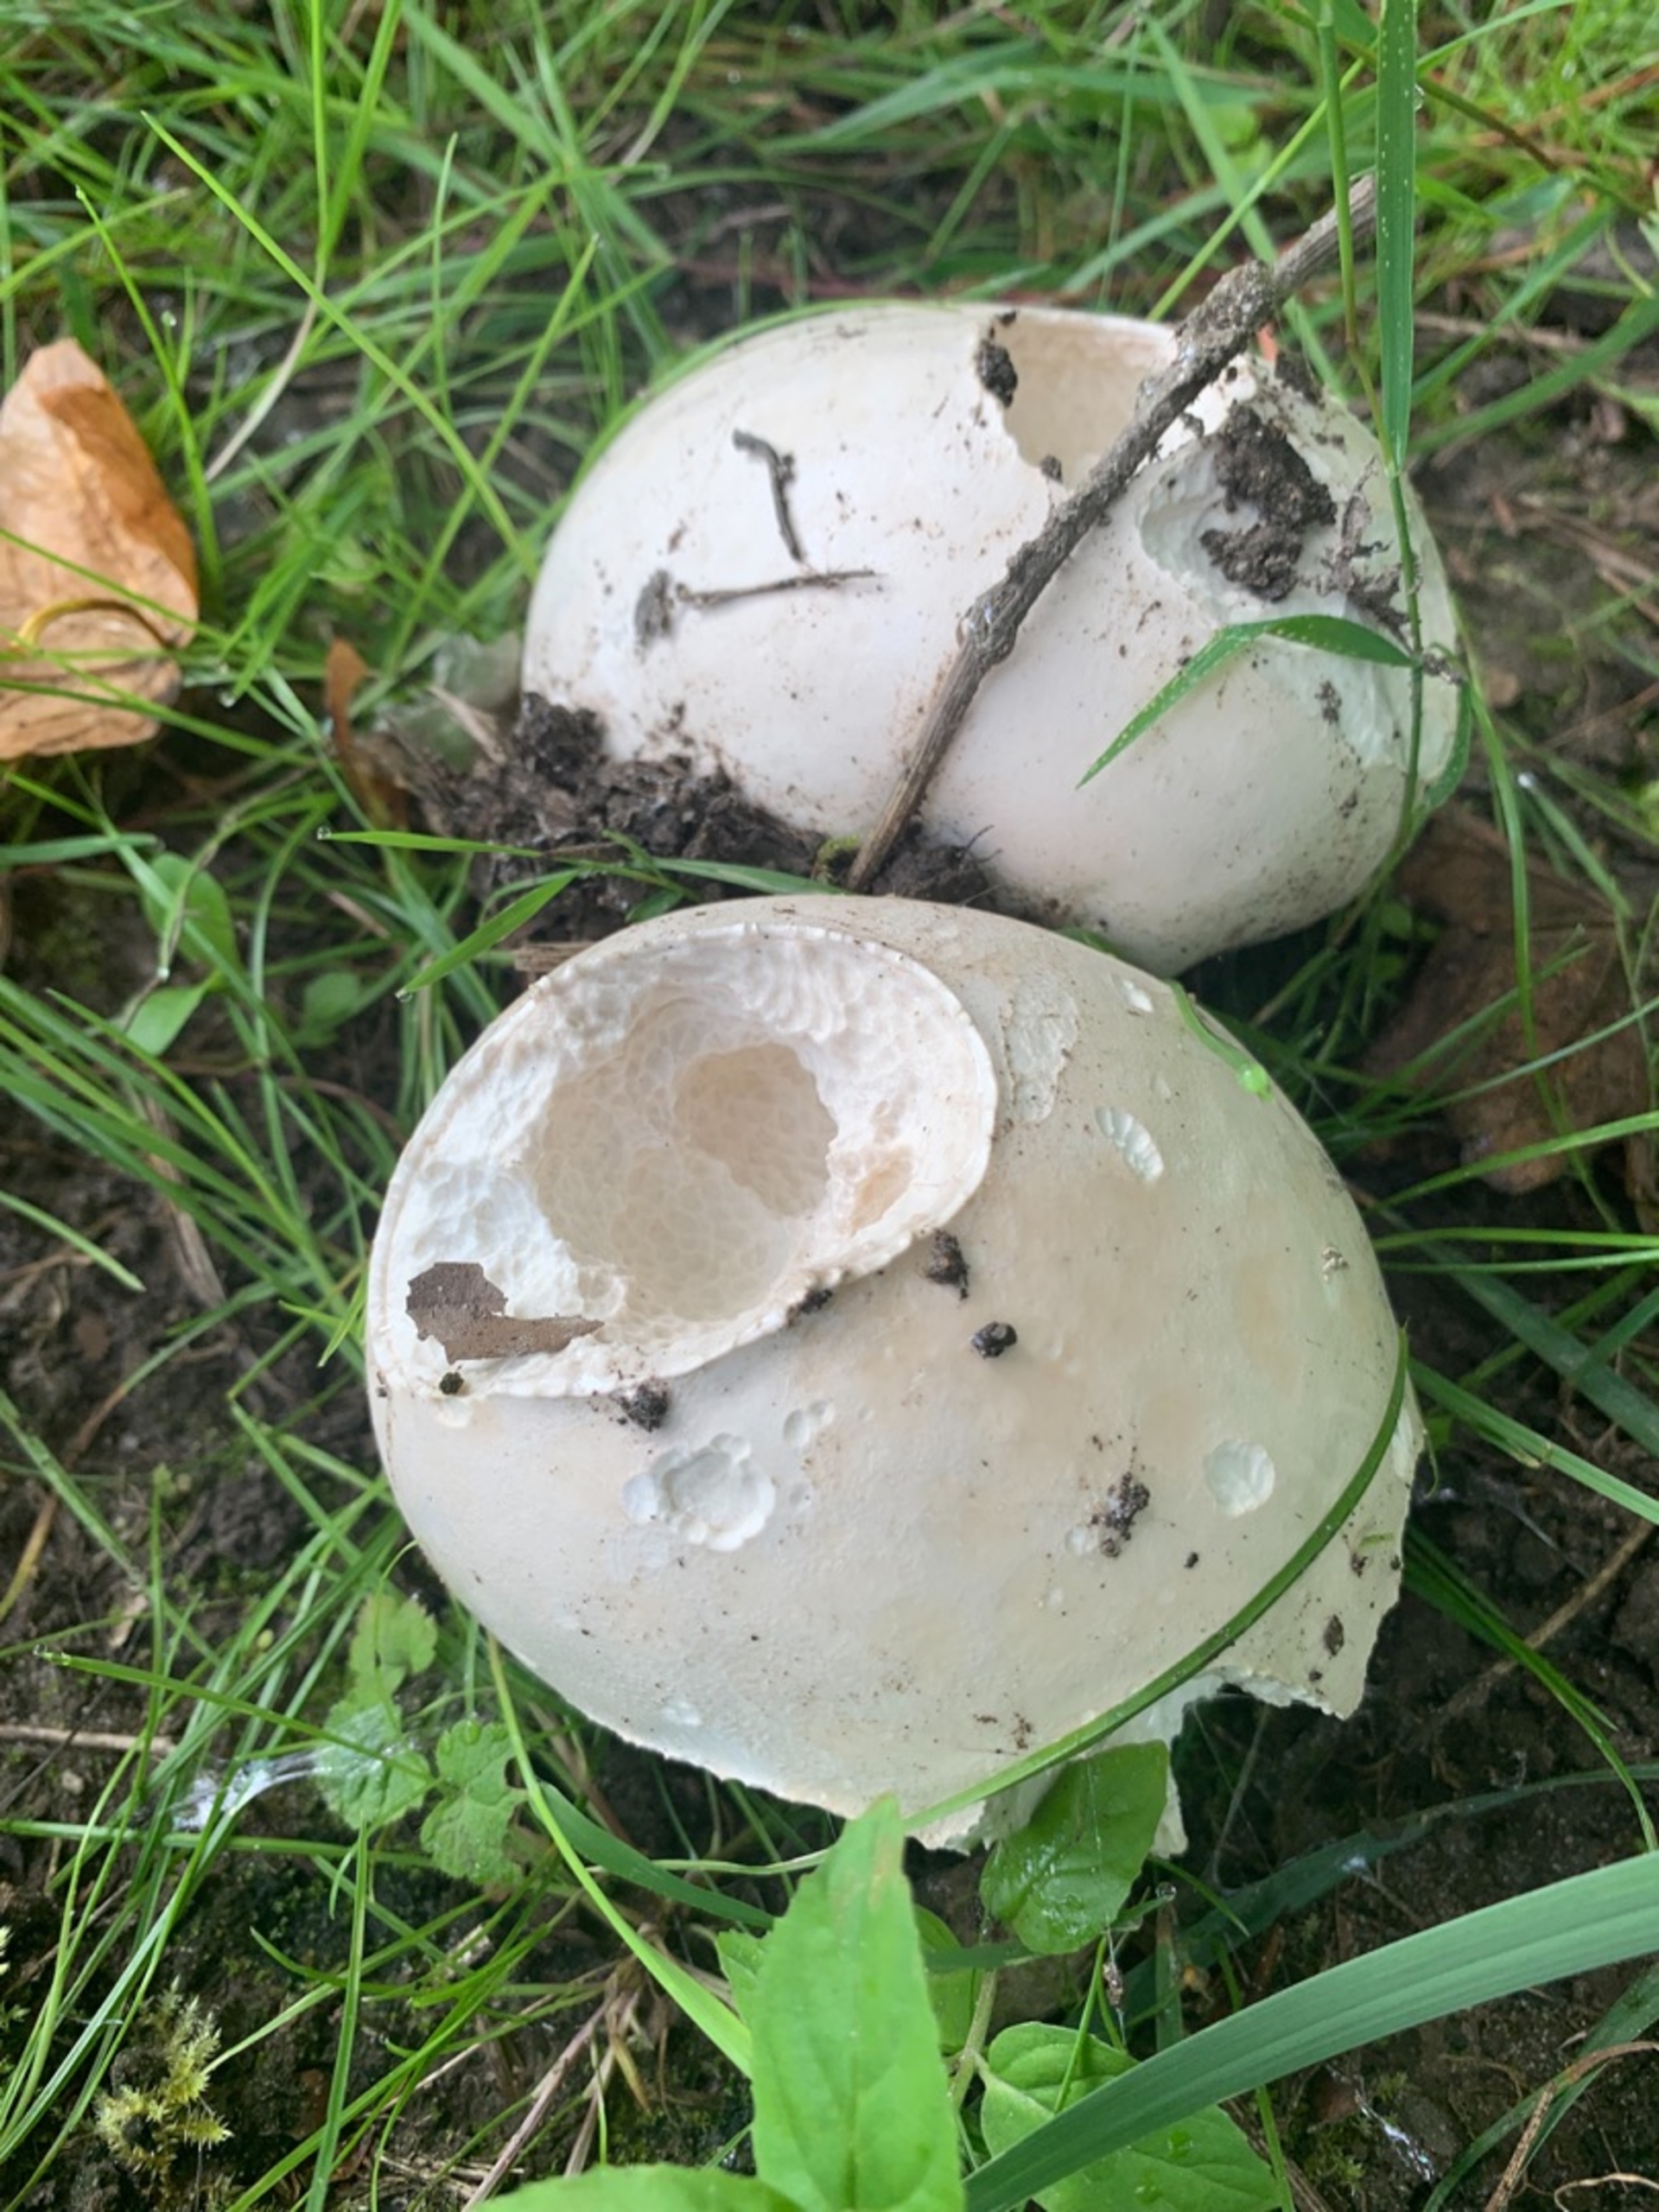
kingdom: Fungi
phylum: Basidiomycota
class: Agaricomycetes
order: Agaricales
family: Lycoperdaceae
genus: Calvatia
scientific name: Calvatia gigantea
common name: Kæmpestøvbold
